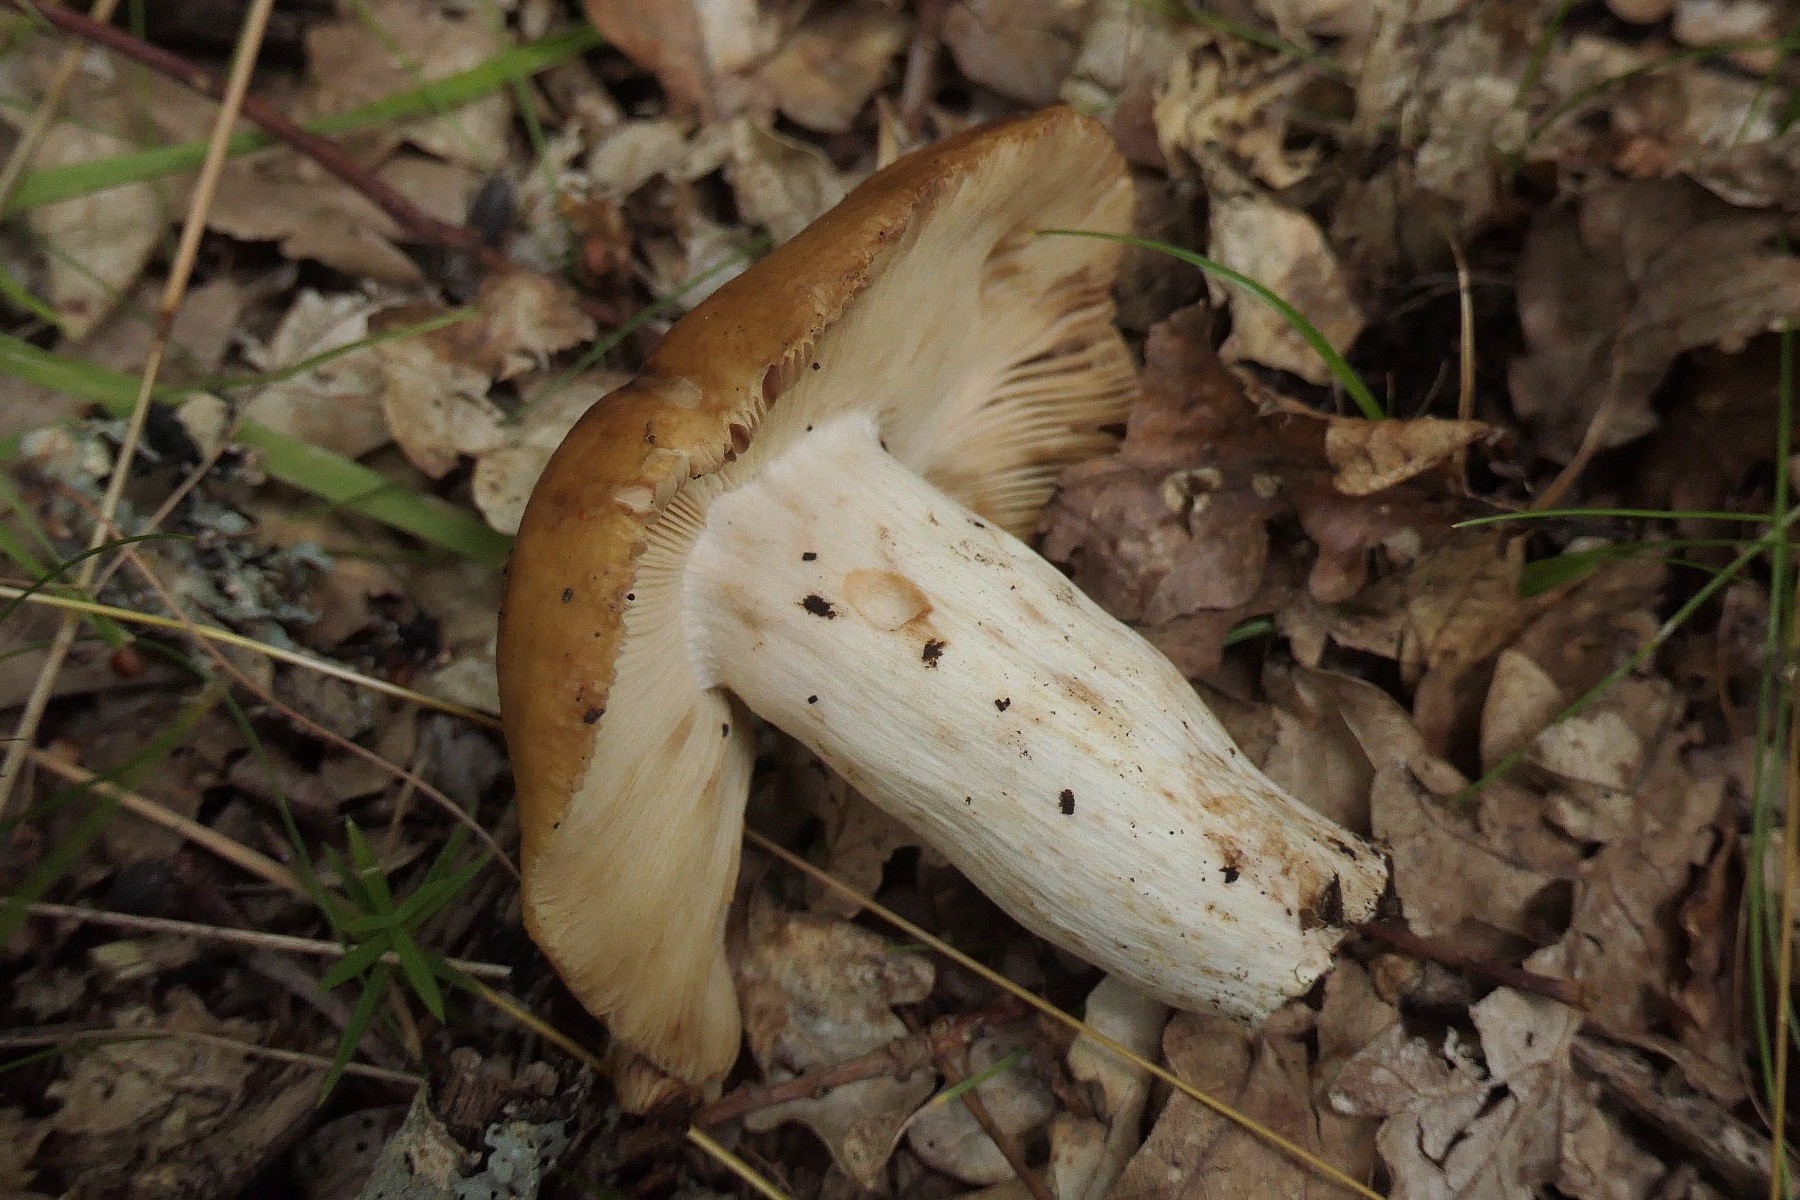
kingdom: Fungi
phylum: Basidiomycota
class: Agaricomycetes
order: Russulales
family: Russulaceae
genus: Russula
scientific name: Russula foetens
